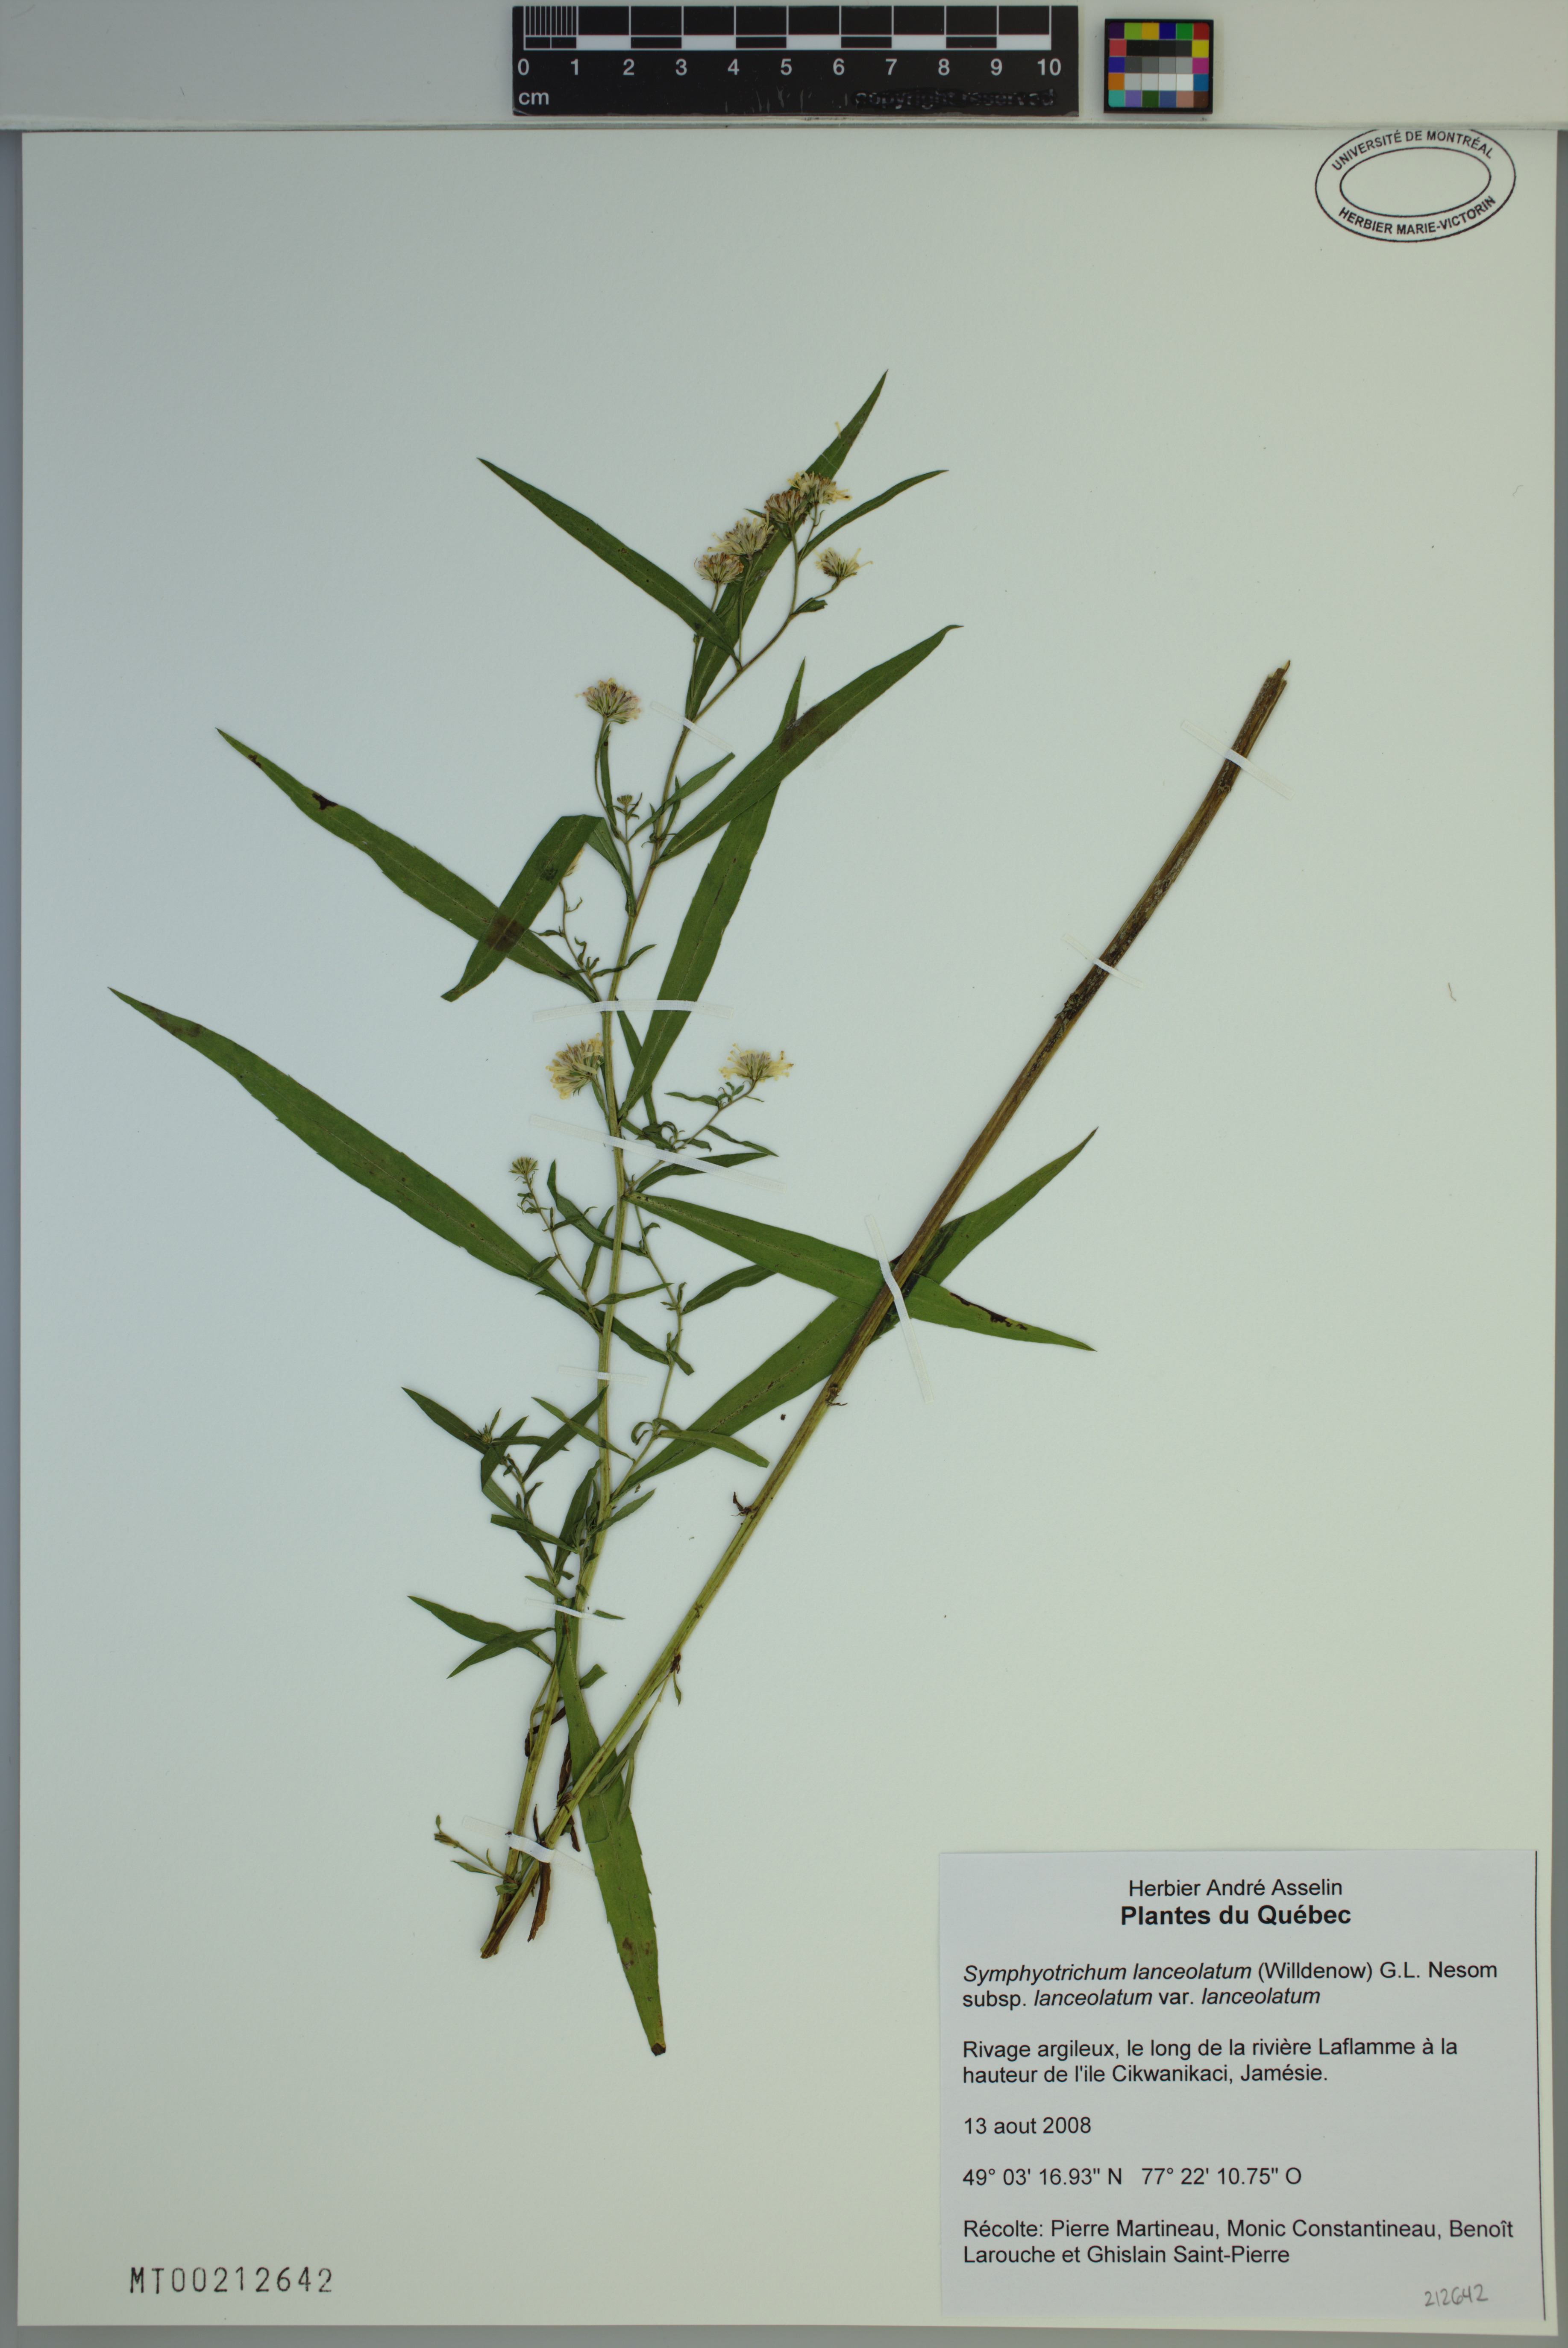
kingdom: Plantae
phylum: Tracheophyta
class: Magnoliopsida
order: Asterales
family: Asteraceae
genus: Symphyotrichum
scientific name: Symphyotrichum lanceolatum
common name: Panicled aster
